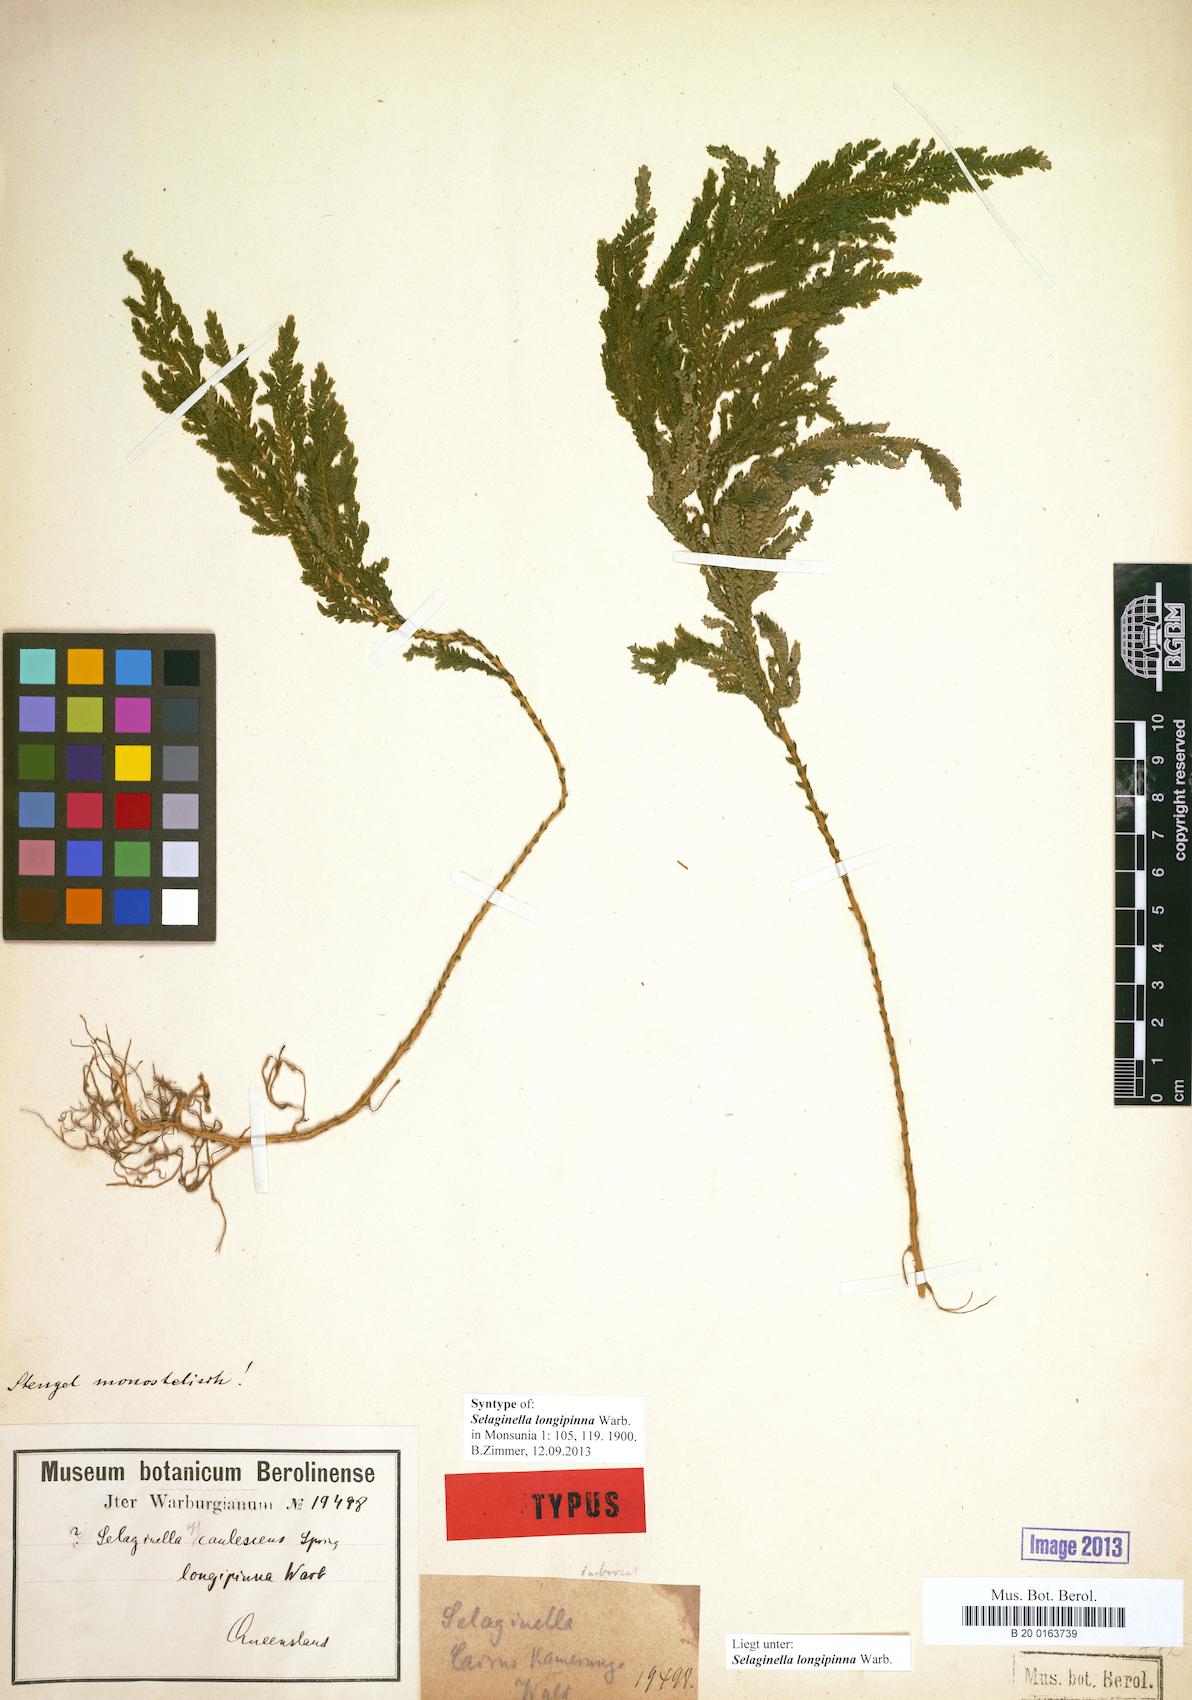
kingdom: Plantae
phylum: Tracheophyta
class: Lycopodiopsida
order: Selaginellales
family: Selaginellaceae
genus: Selaginella
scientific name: Selaginella longipinna
